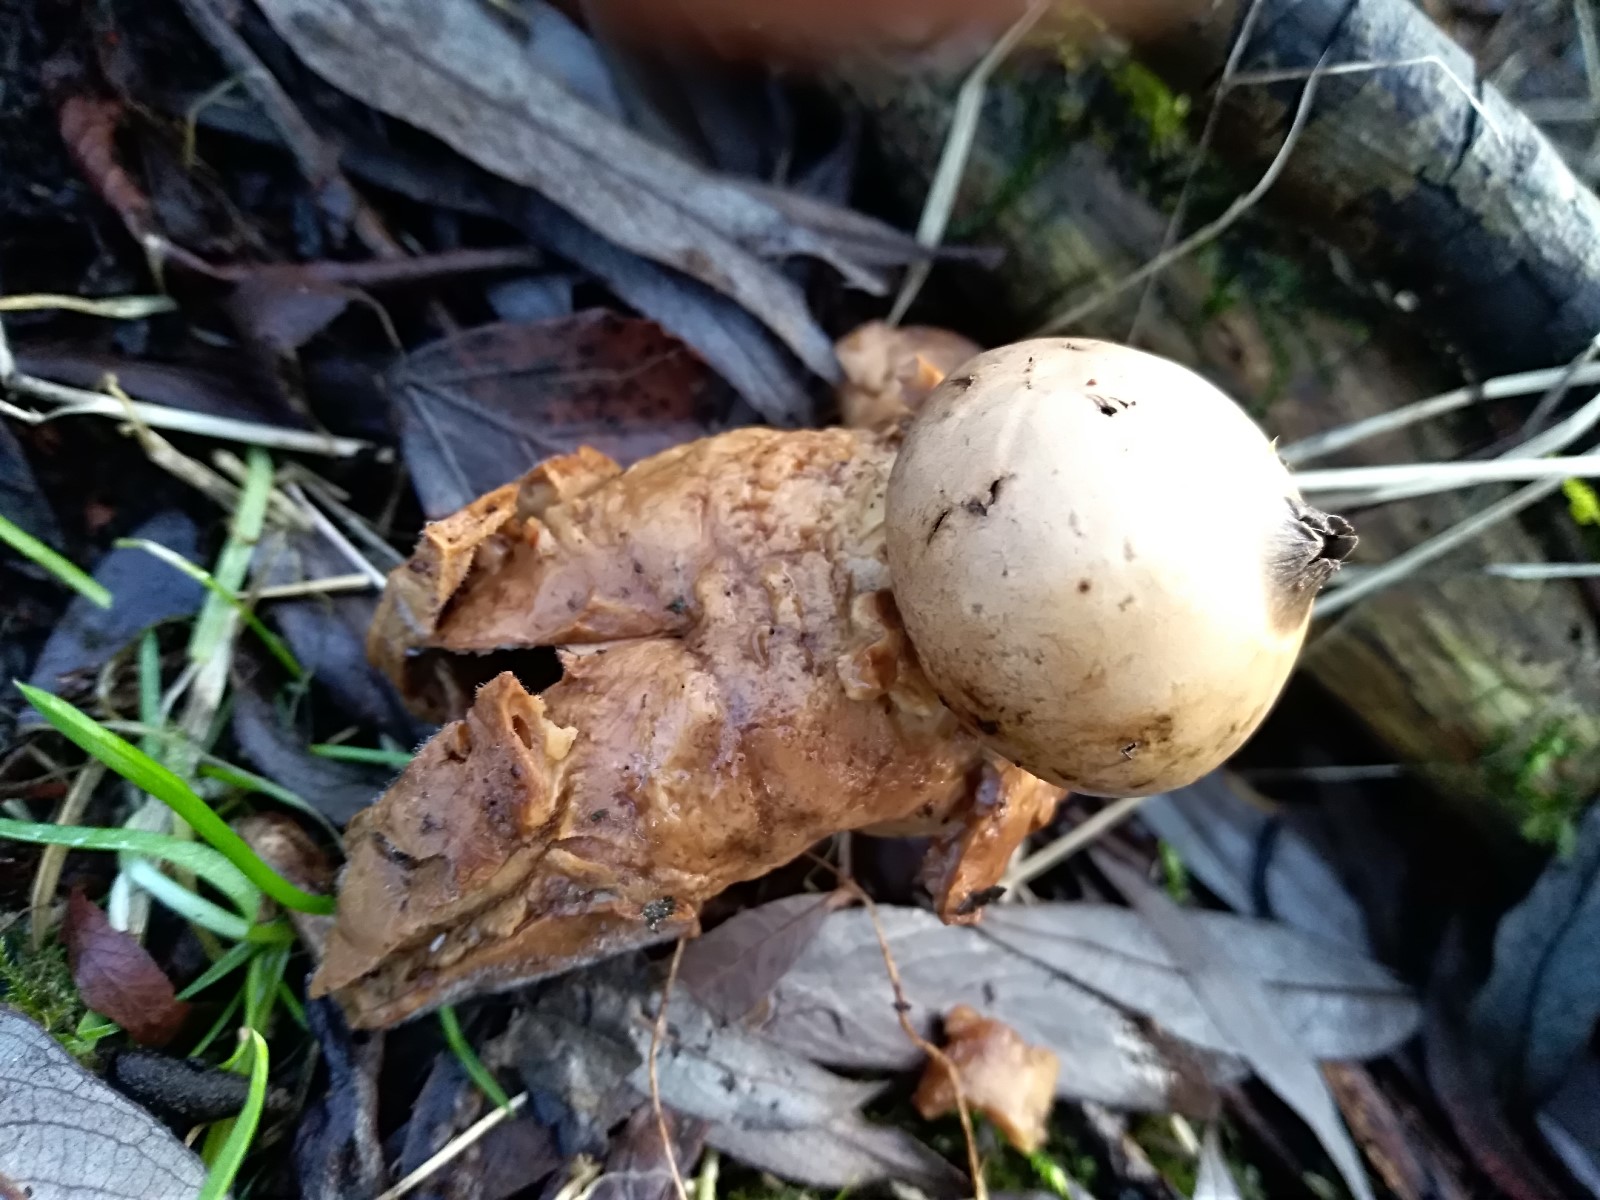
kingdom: Fungi
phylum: Basidiomycota
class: Agaricomycetes
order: Geastrales
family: Geastraceae
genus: Geastrum
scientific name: Geastrum michelianum
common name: kødet stjernebold
